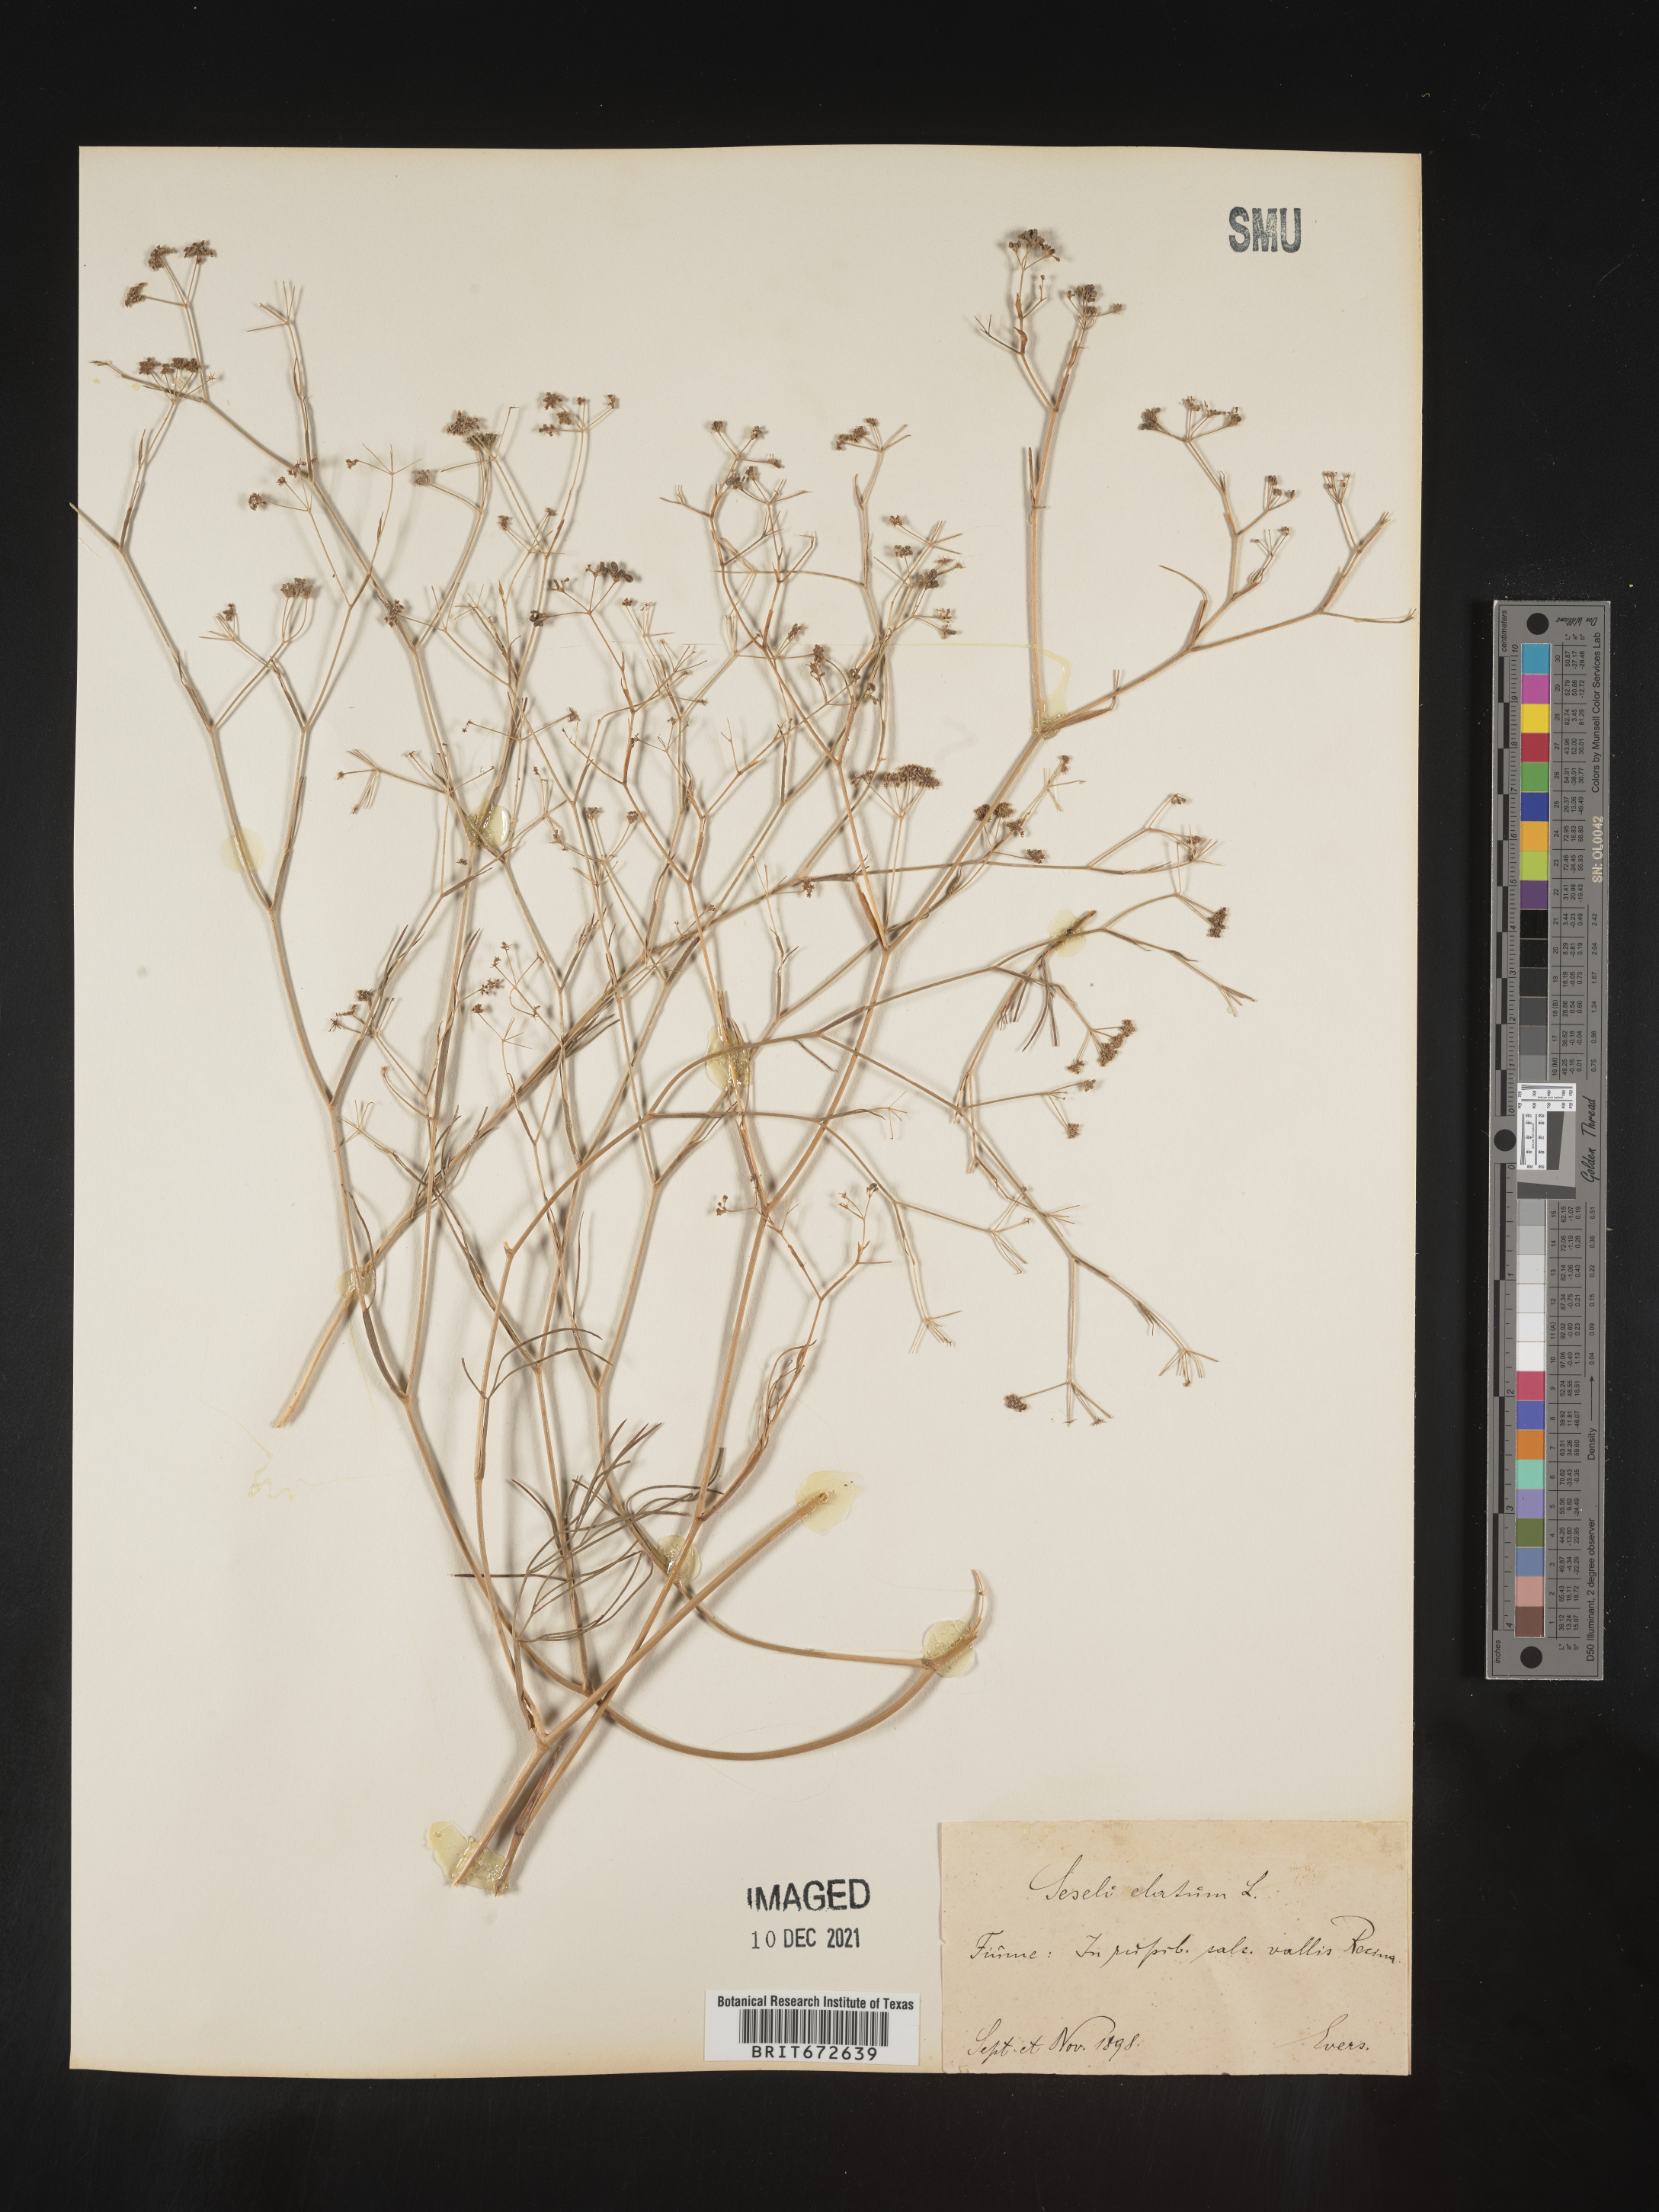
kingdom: Plantae
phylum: Tracheophyta
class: Magnoliopsida
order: Apiales
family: Apiaceae
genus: Seseli
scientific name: Seseli
